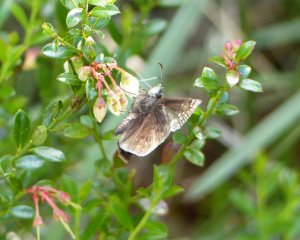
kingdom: Animalia
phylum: Arthropoda
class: Insecta
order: Lepidoptera
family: Hesperiidae
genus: Gesta
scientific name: Gesta
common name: Juvenal's Duskywing
